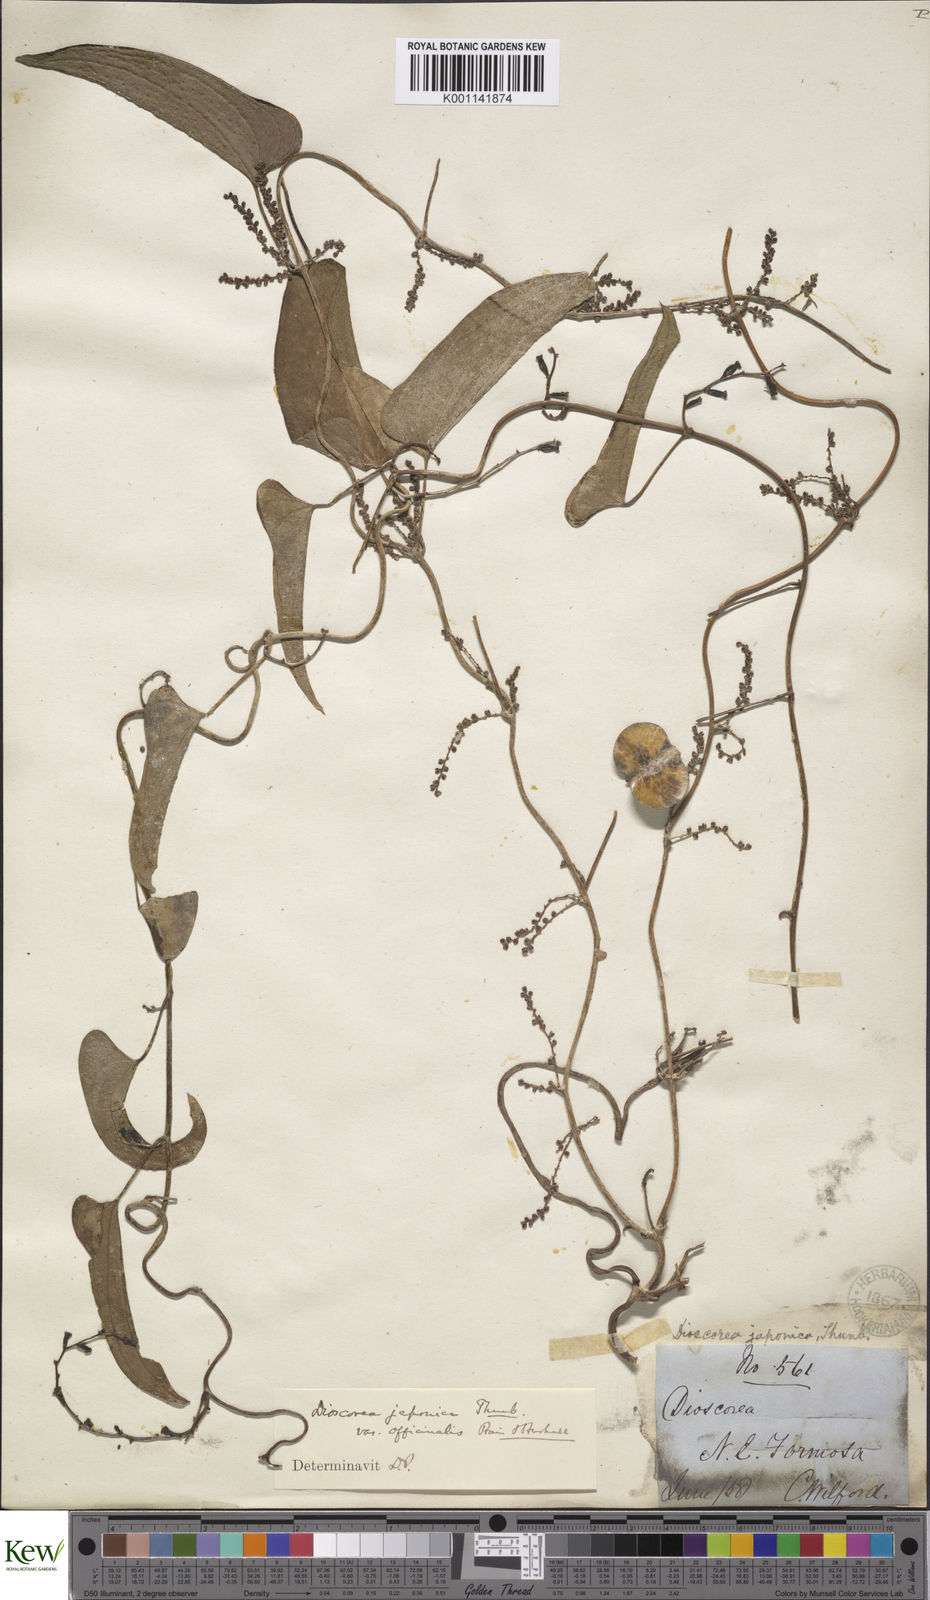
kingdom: Plantae
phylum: Tracheophyta
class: Liliopsida
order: Dioscoreales
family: Dioscoreaceae
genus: Dioscorea
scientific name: Dioscorea japonica
